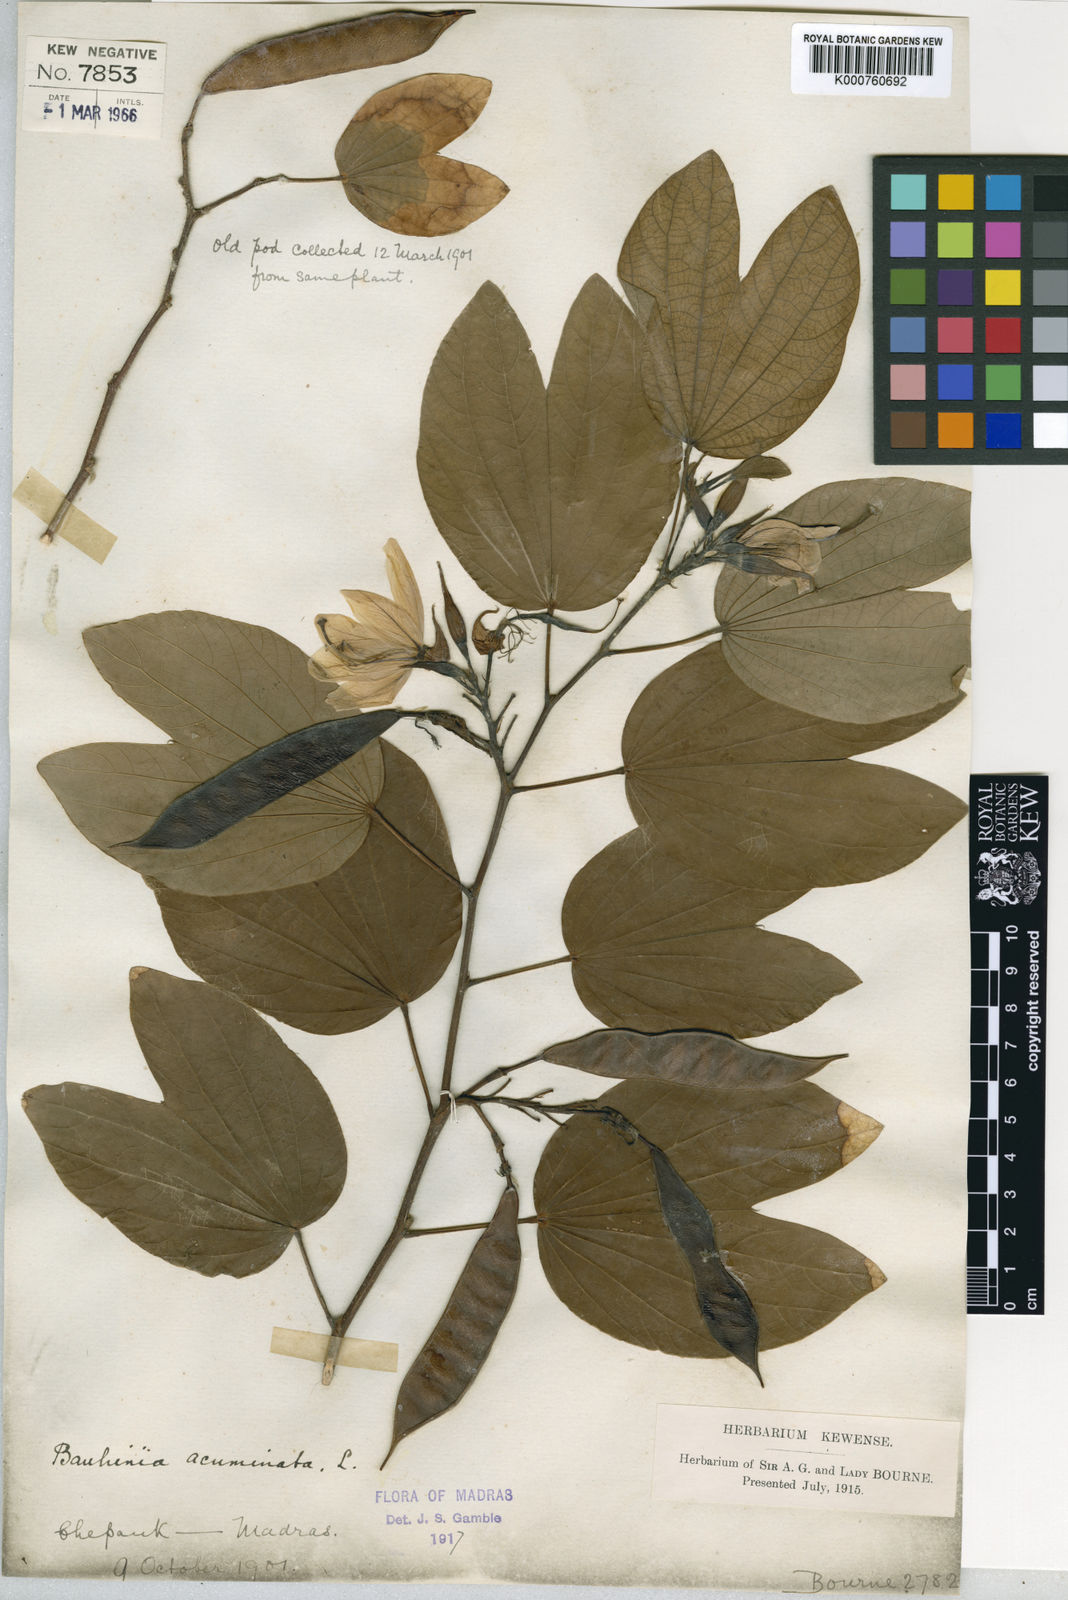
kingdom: Plantae
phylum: Tracheophyta
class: Magnoliopsida
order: Fabales
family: Fabaceae
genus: Bauhinia
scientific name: Bauhinia acuminata
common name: Dwarf white bauhinia
